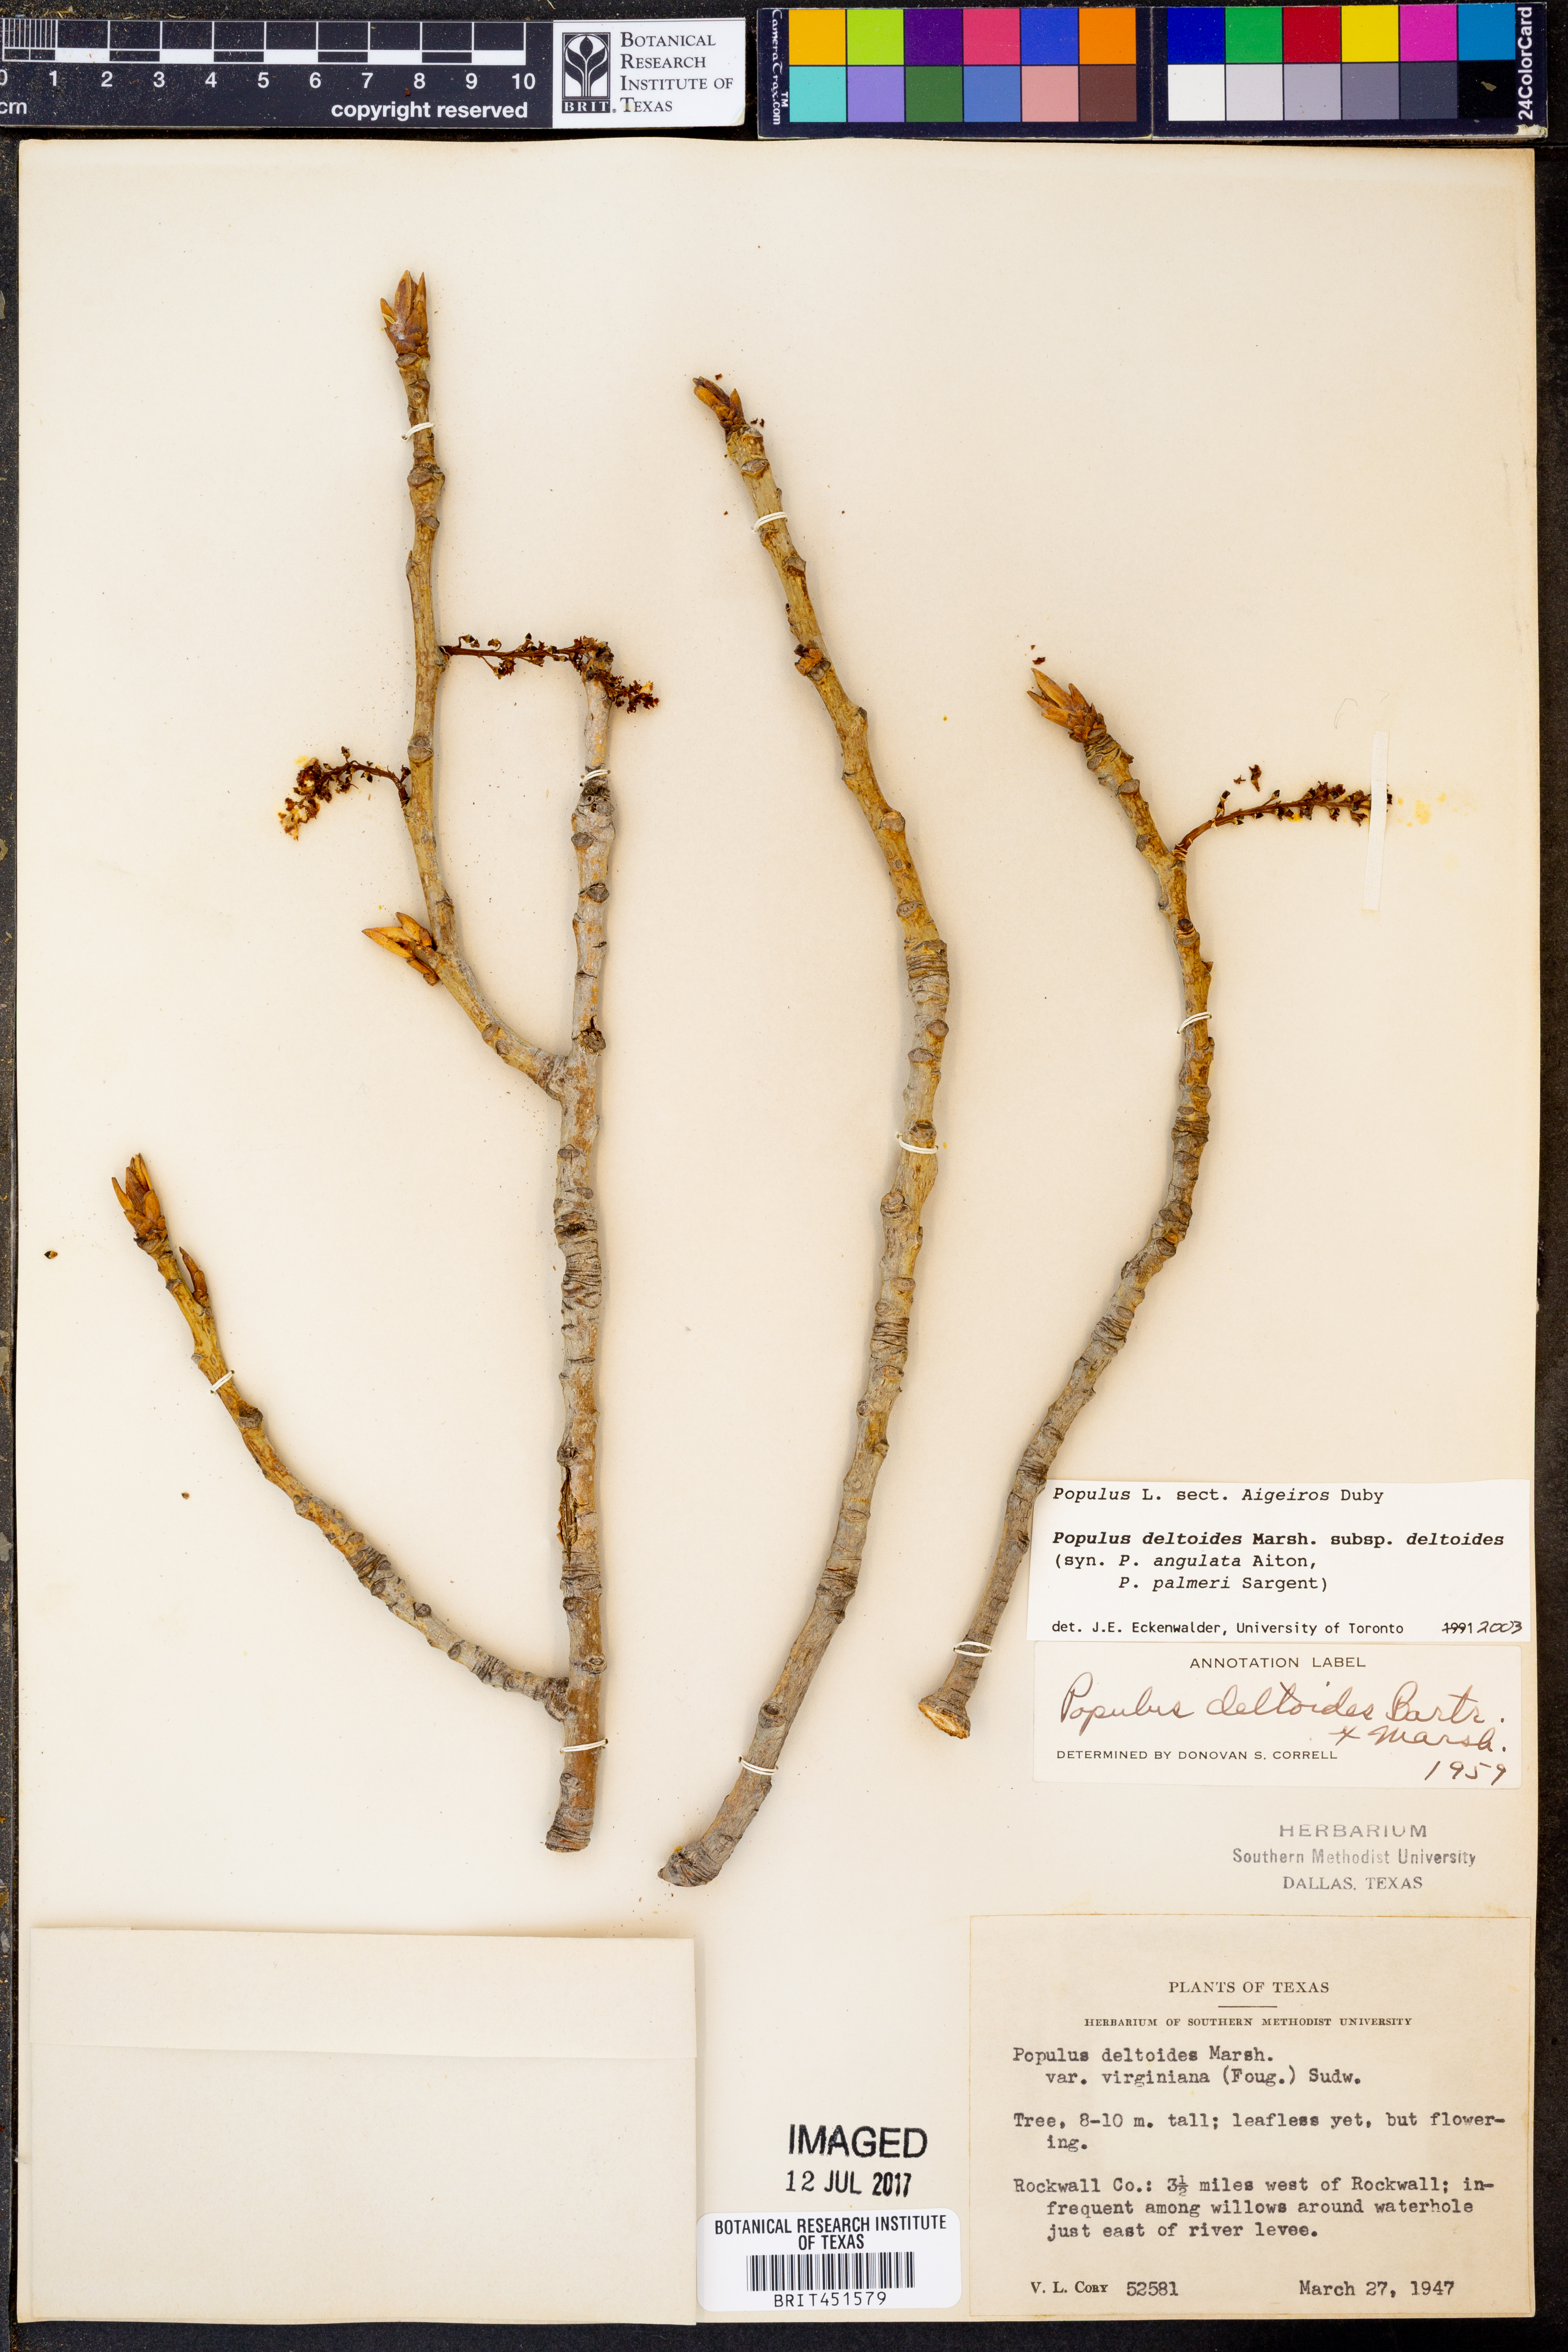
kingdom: Plantae
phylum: Tracheophyta
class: Magnoliopsida
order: Malpighiales
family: Salicaceae
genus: Populus
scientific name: Populus deltoides
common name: Eastern cottonwood
